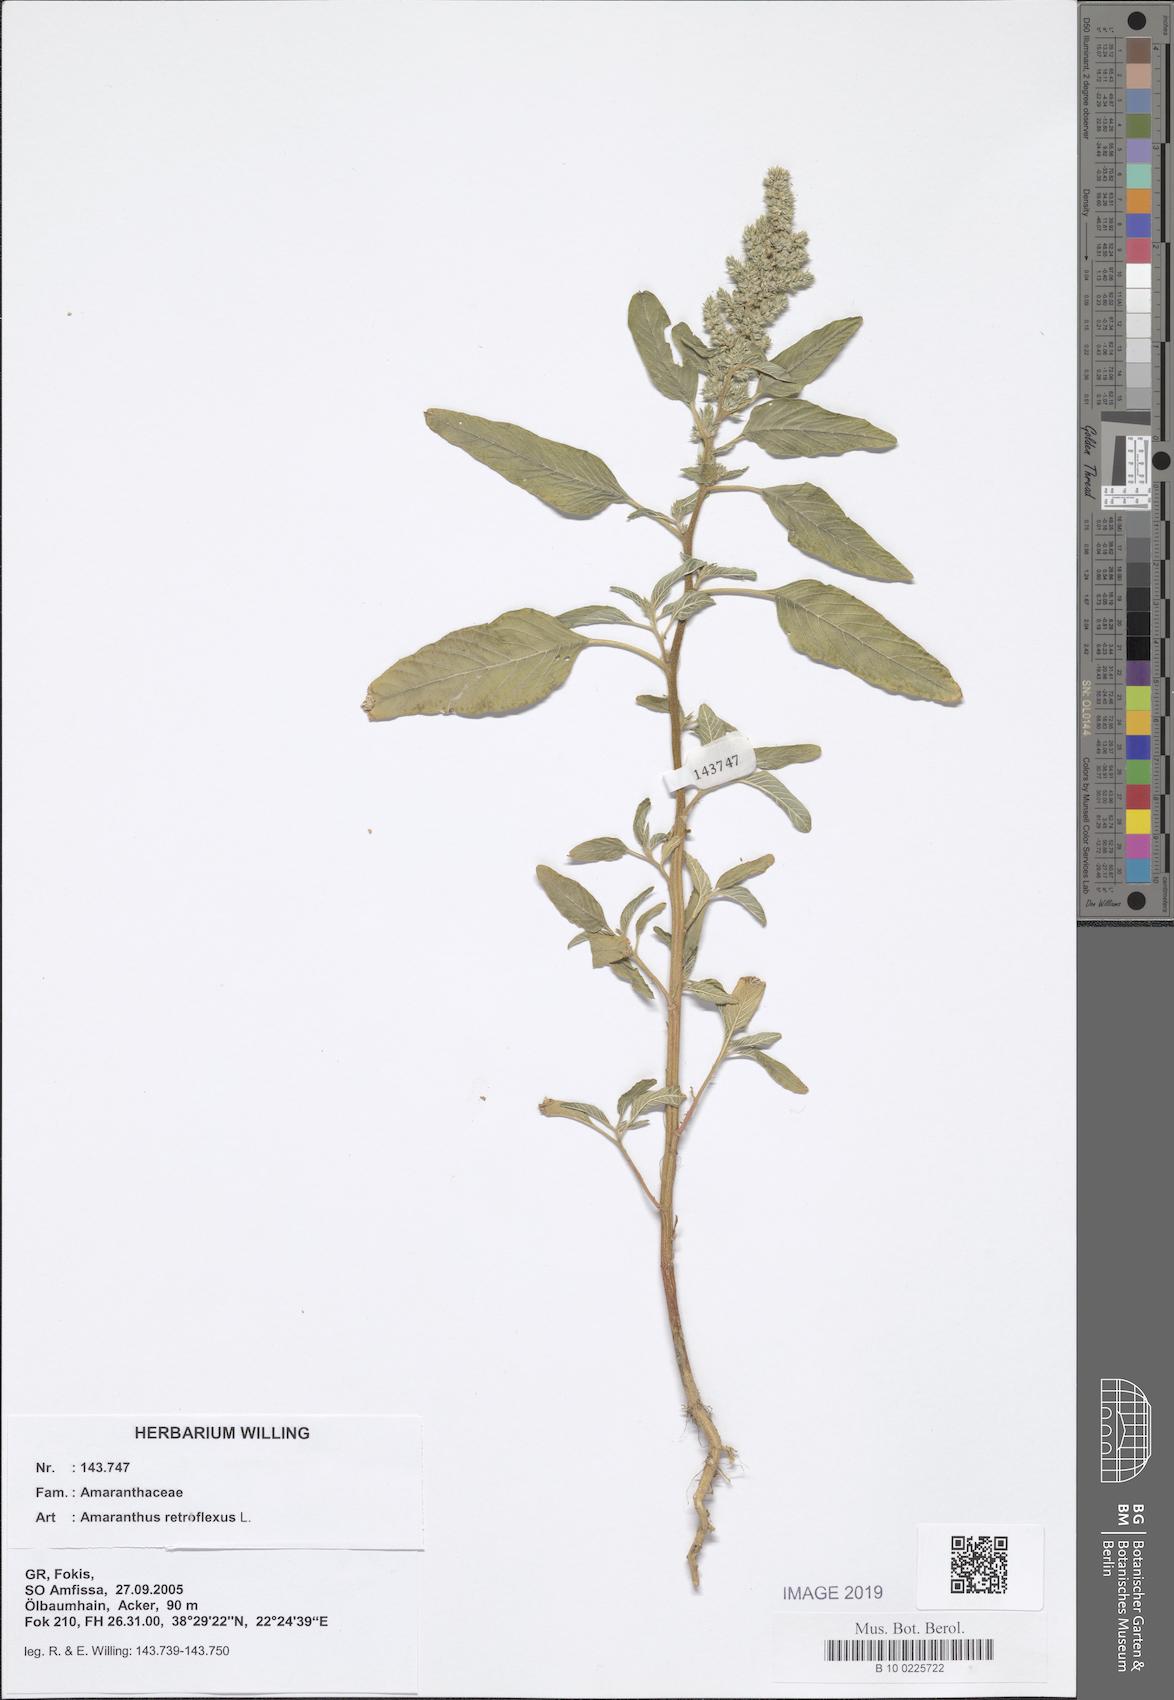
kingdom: Plantae
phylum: Tracheophyta
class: Magnoliopsida
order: Caryophyllales
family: Amaranthaceae
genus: Amaranthus
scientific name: Amaranthus retroflexus
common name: Redroot amaranth
